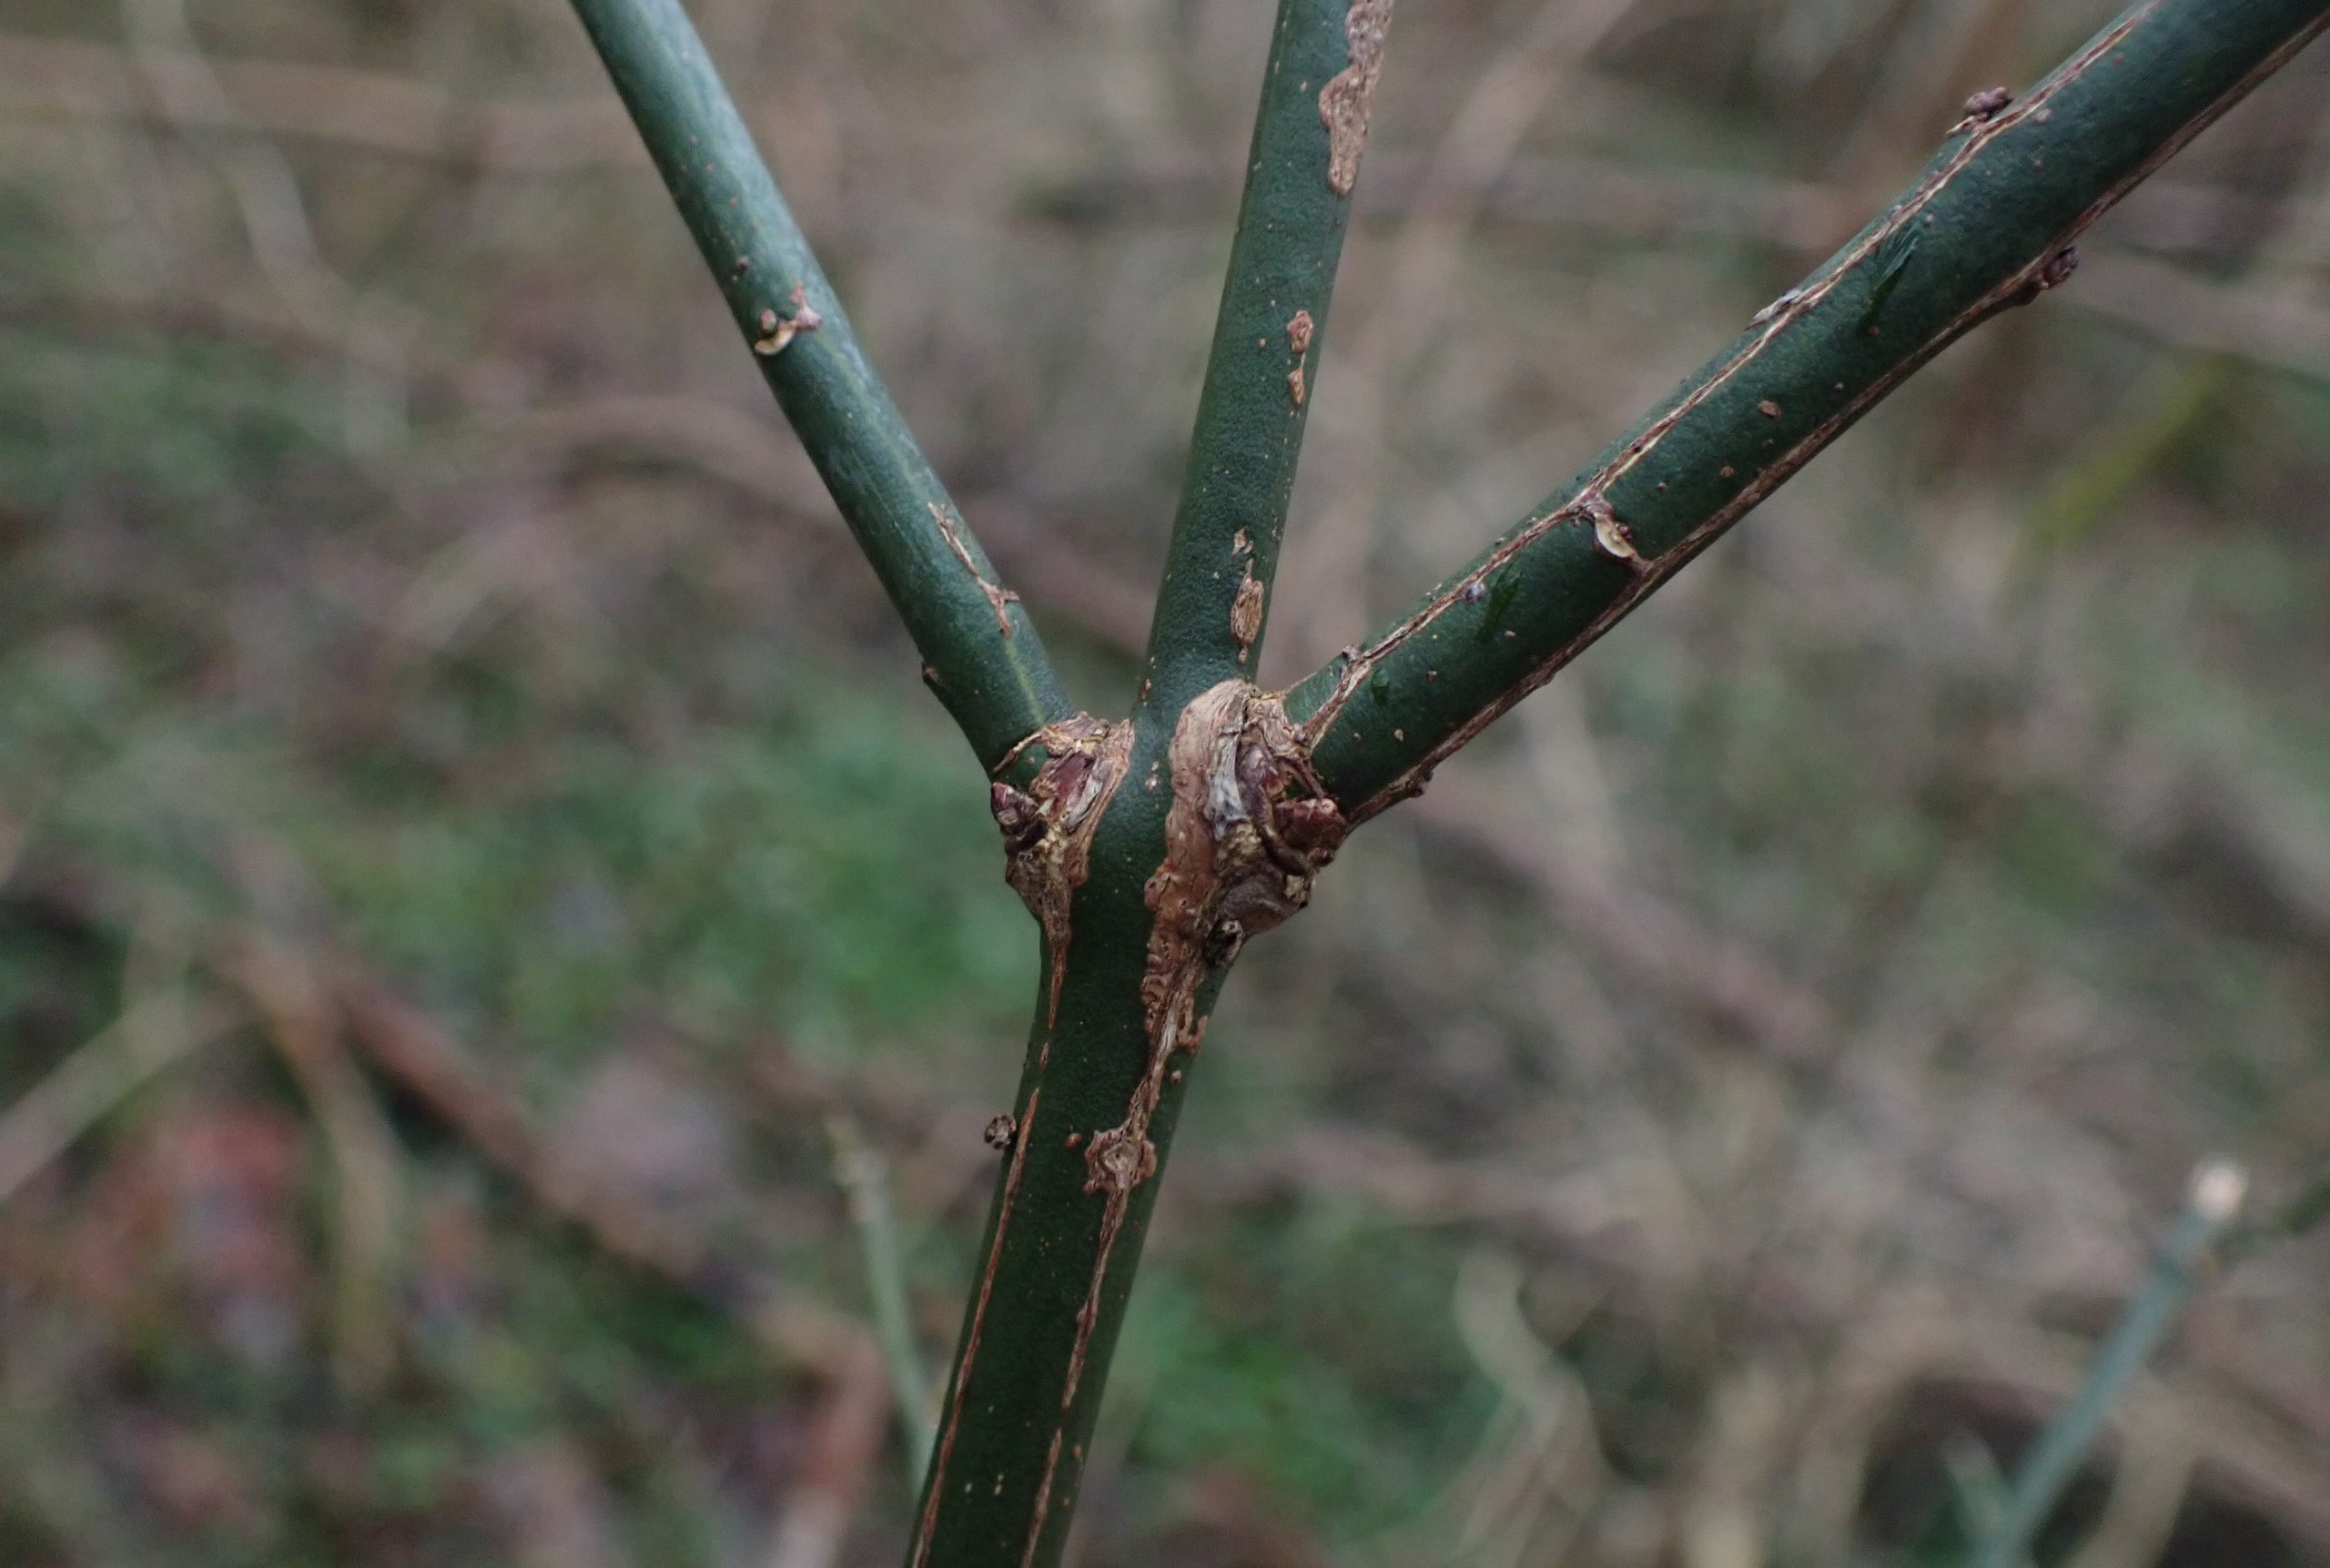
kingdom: Plantae
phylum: Tracheophyta
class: Magnoliopsida
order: Celastrales
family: Celastraceae
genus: Euonymus
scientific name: Euonymus europaeus
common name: Benved
